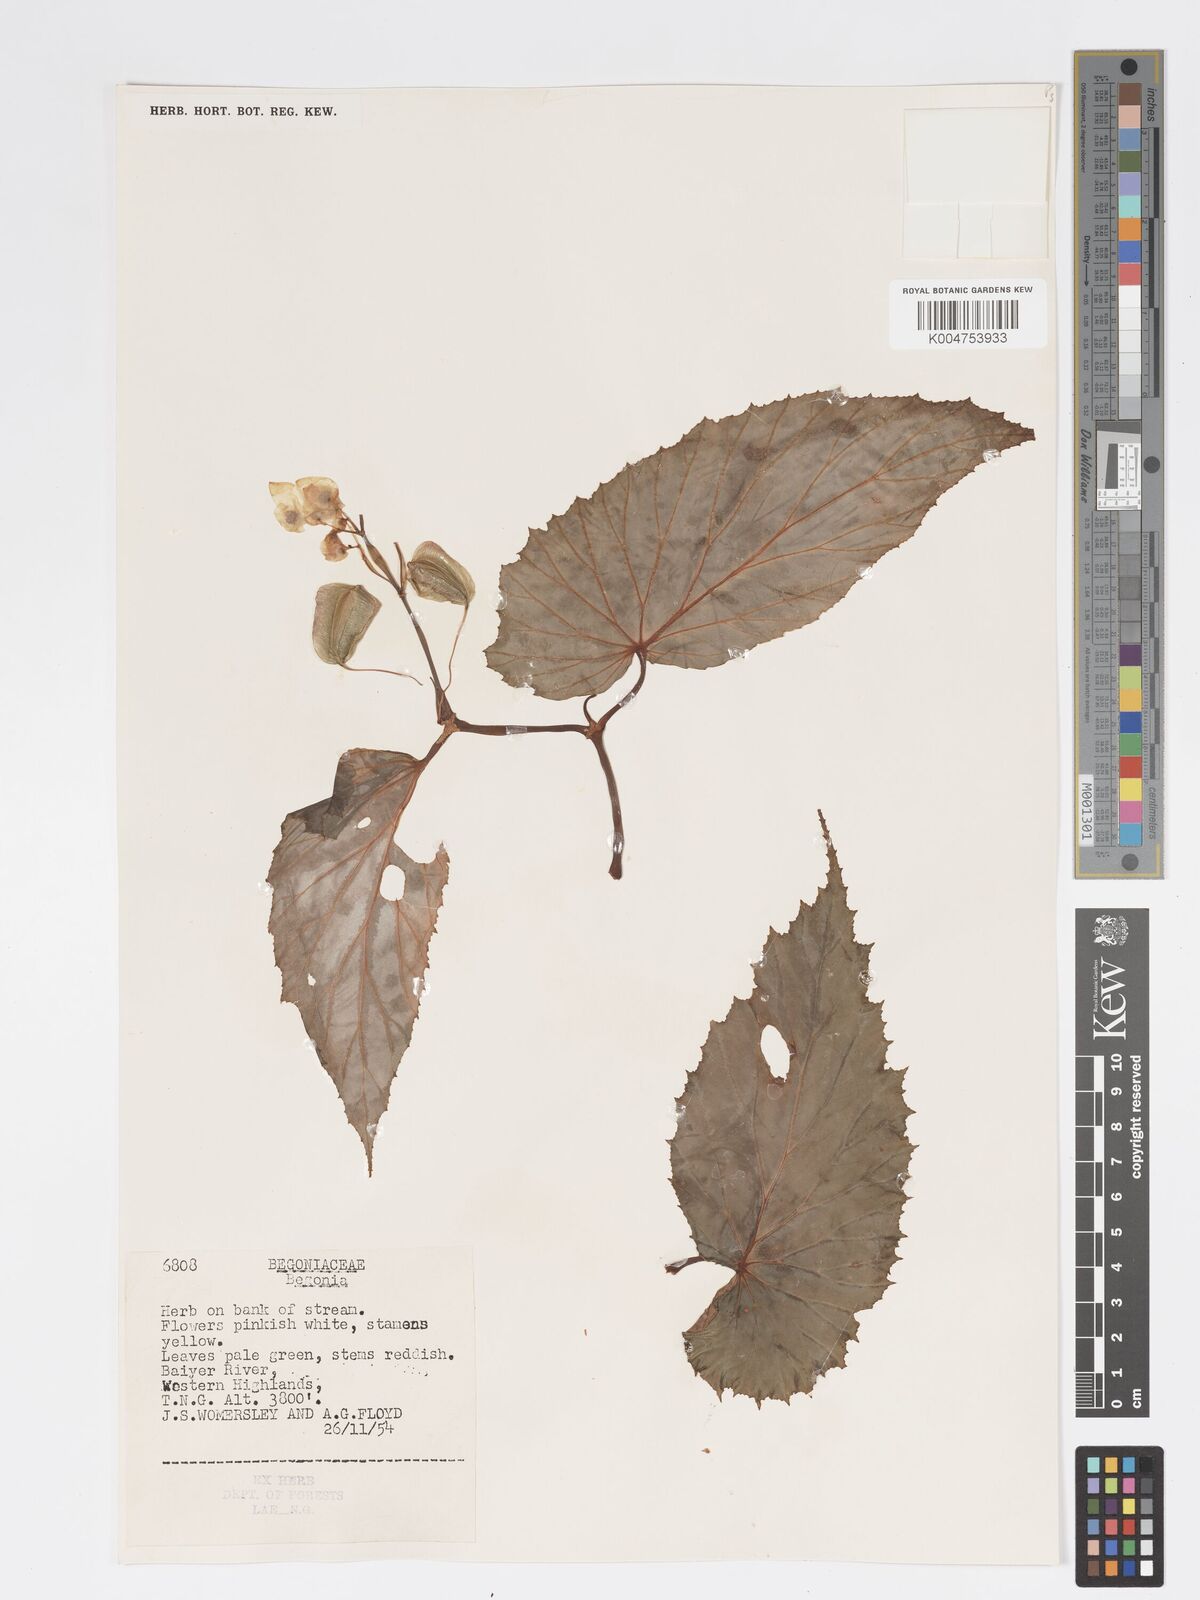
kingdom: Plantae
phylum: Tracheophyta
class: Magnoliopsida
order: Cucurbitales
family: Begoniaceae
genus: Begonia
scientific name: Begonia augustae
